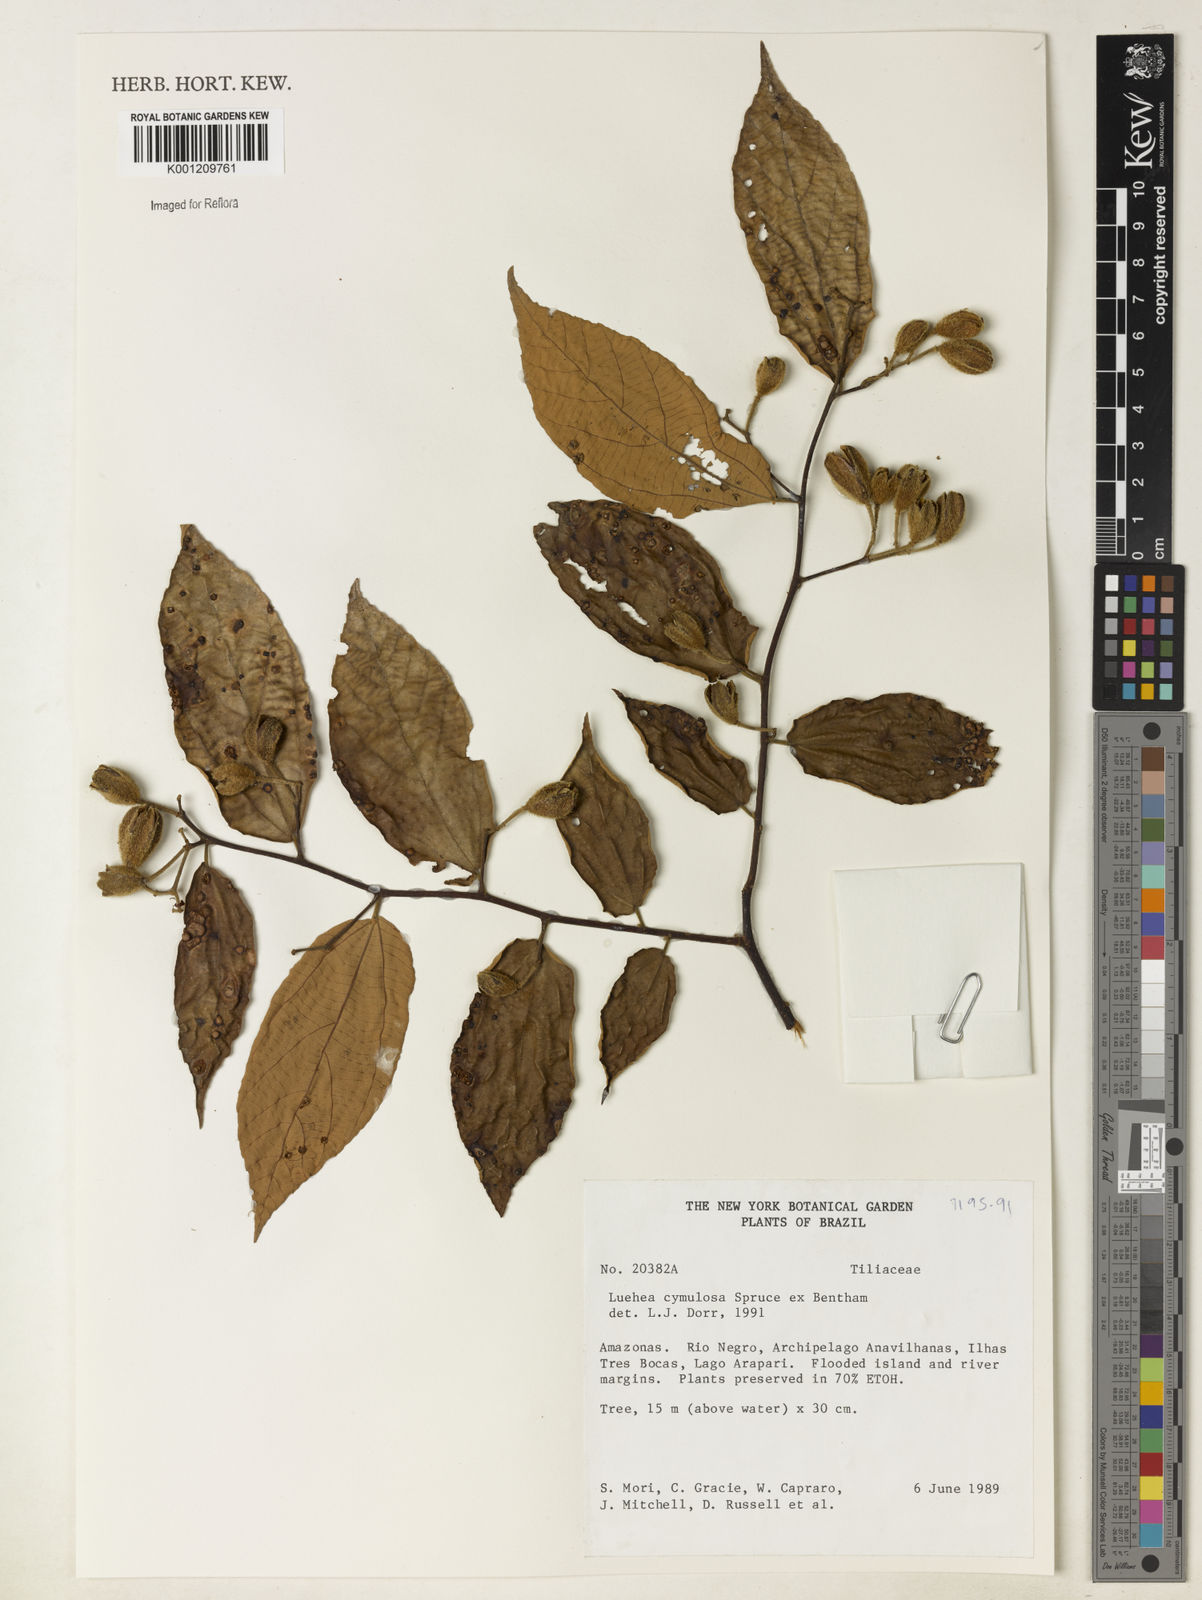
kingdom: Plantae
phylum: Tracheophyta
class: Magnoliopsida
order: Malvales
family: Malvaceae
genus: Luehea
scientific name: Luehea cymulosa
